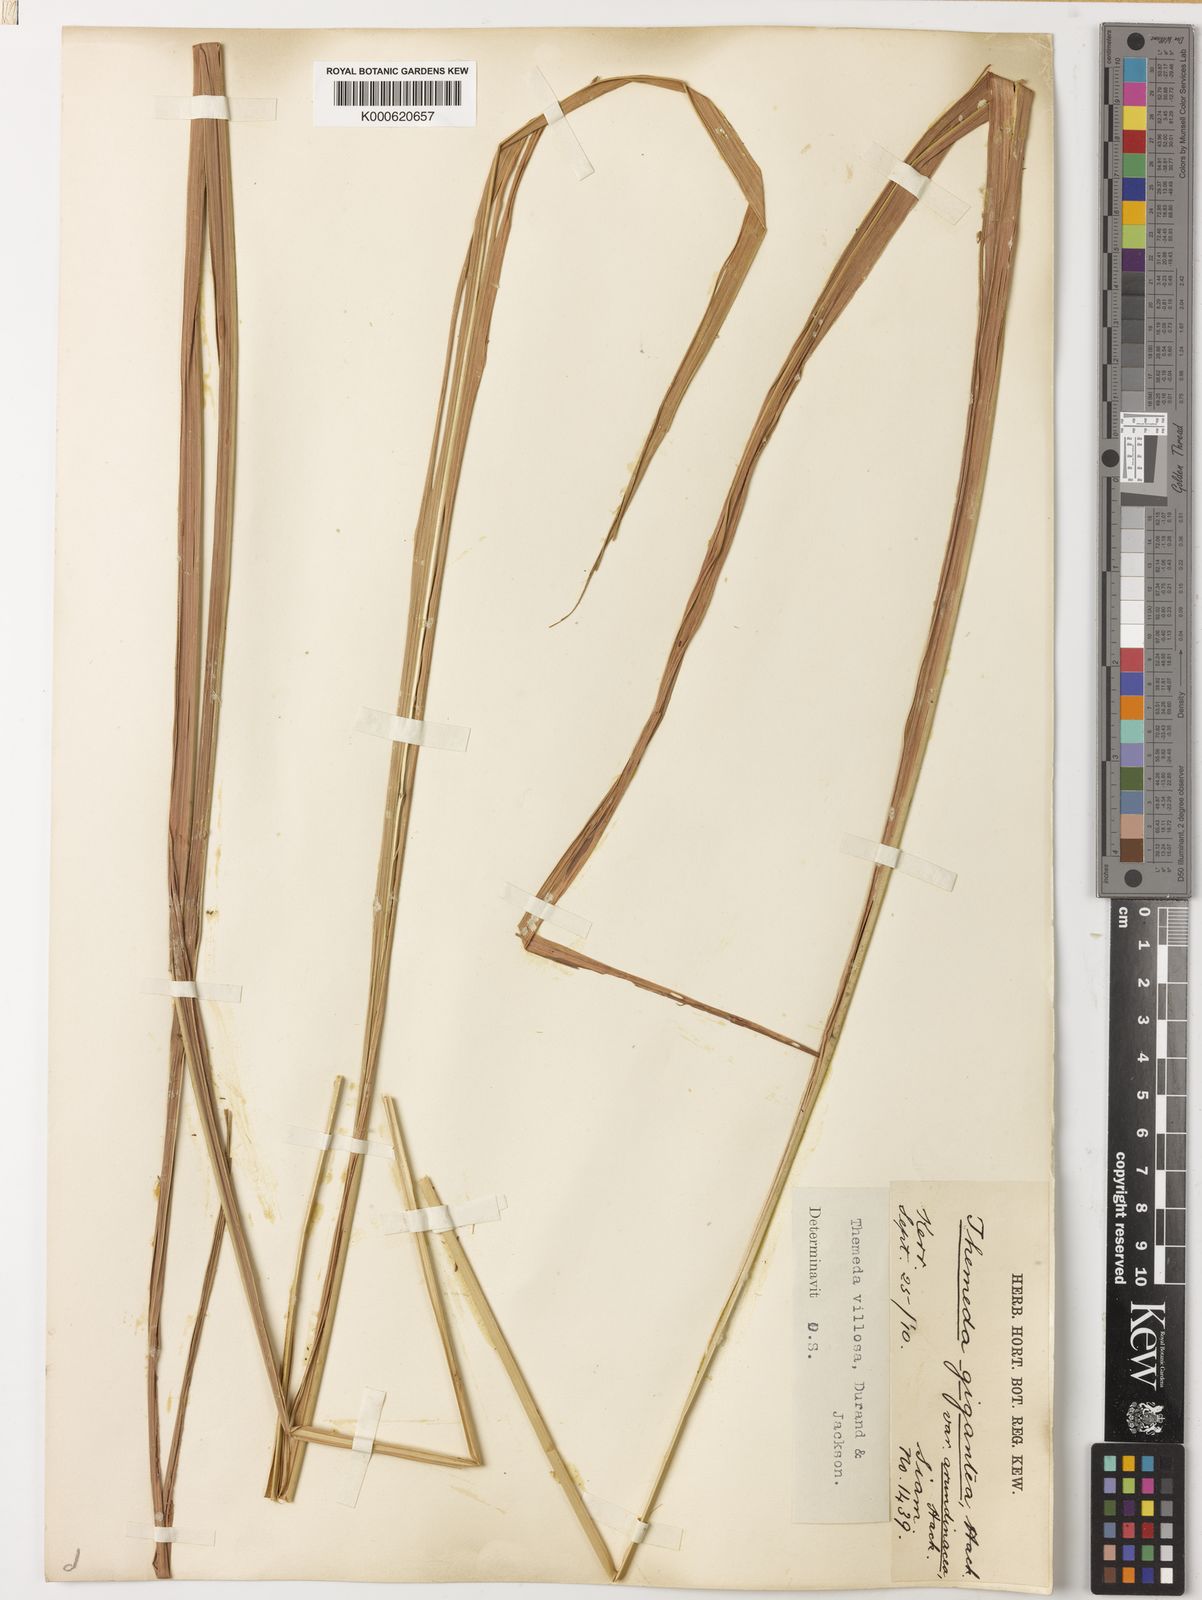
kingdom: Plantae
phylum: Tracheophyta
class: Liliopsida
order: Poales
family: Poaceae
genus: Themeda
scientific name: Themeda villosa
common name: Silky kangaroo grass
